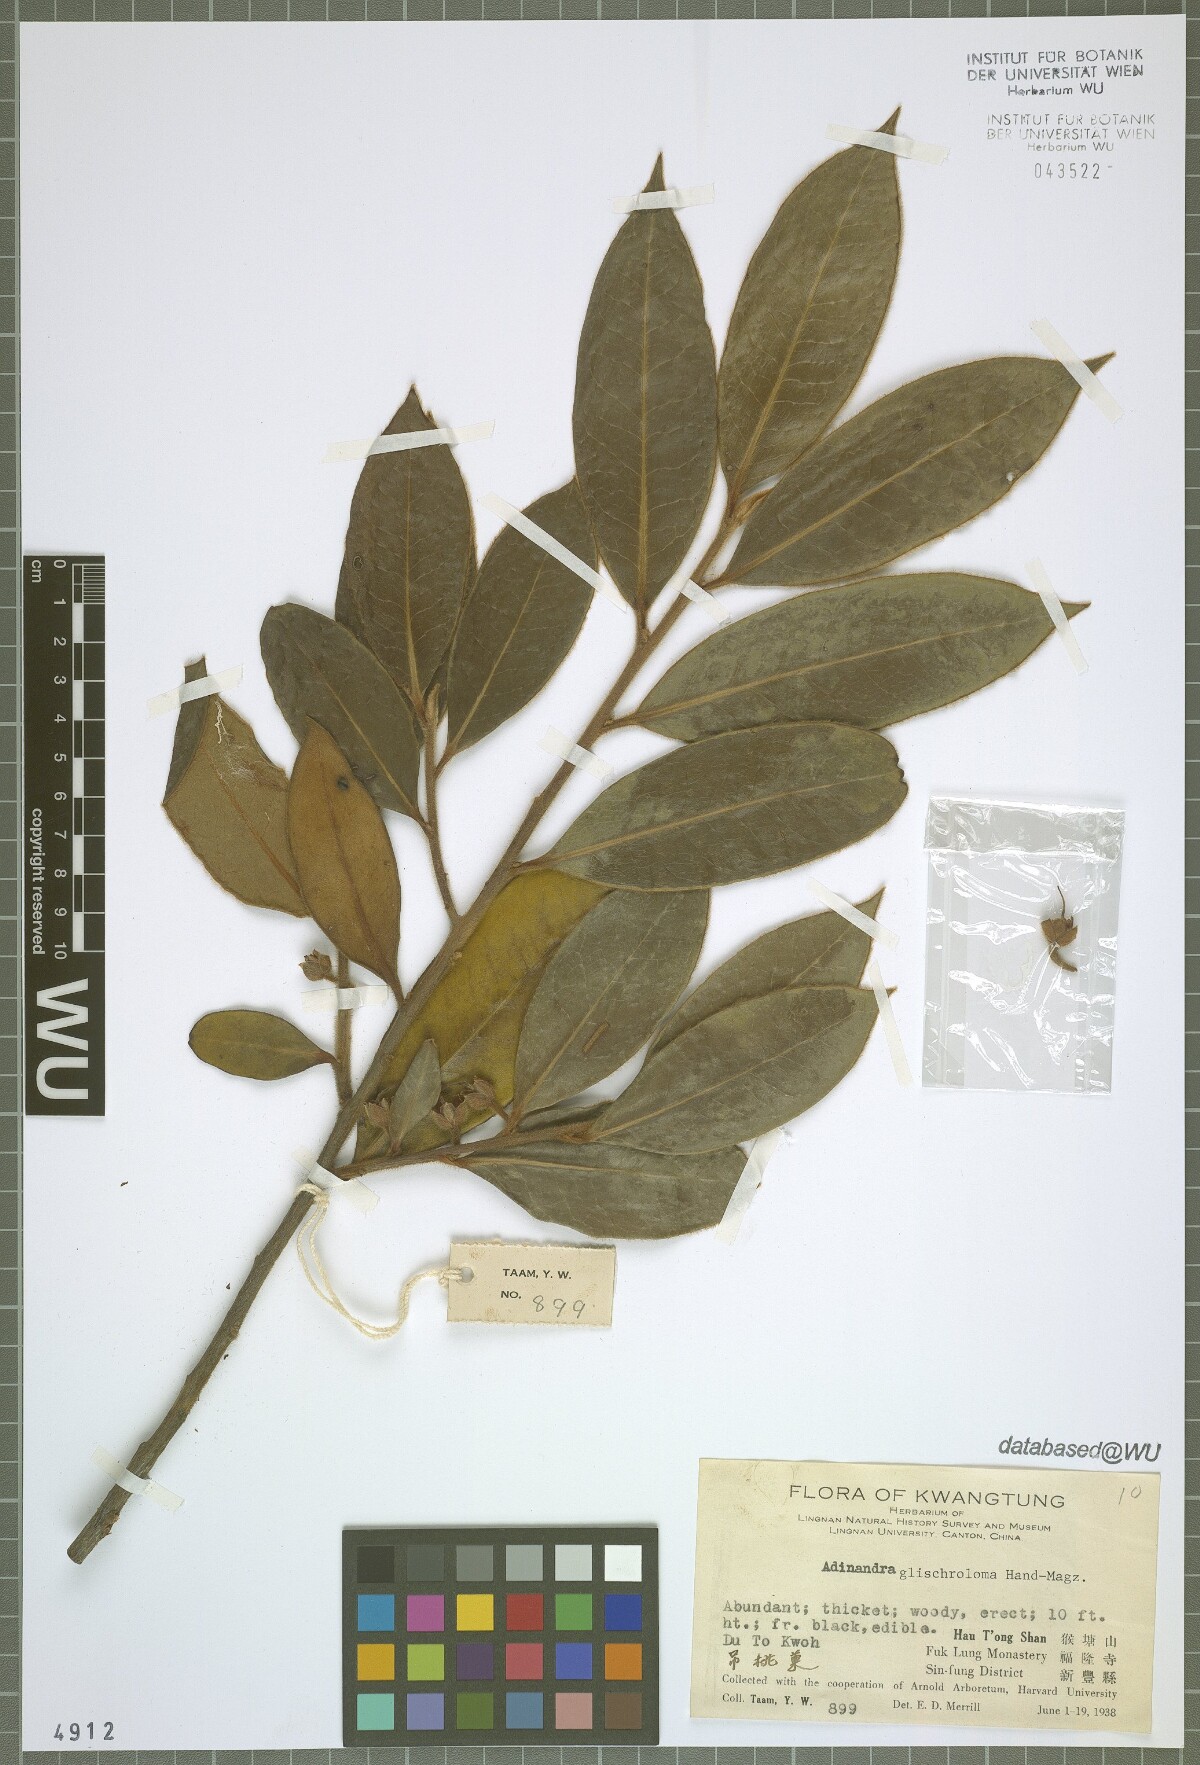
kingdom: Plantae
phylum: Tracheophyta
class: Magnoliopsida
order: Ericales
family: Pentaphylacaceae
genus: Adinandra
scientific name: Adinandra glischroloma
